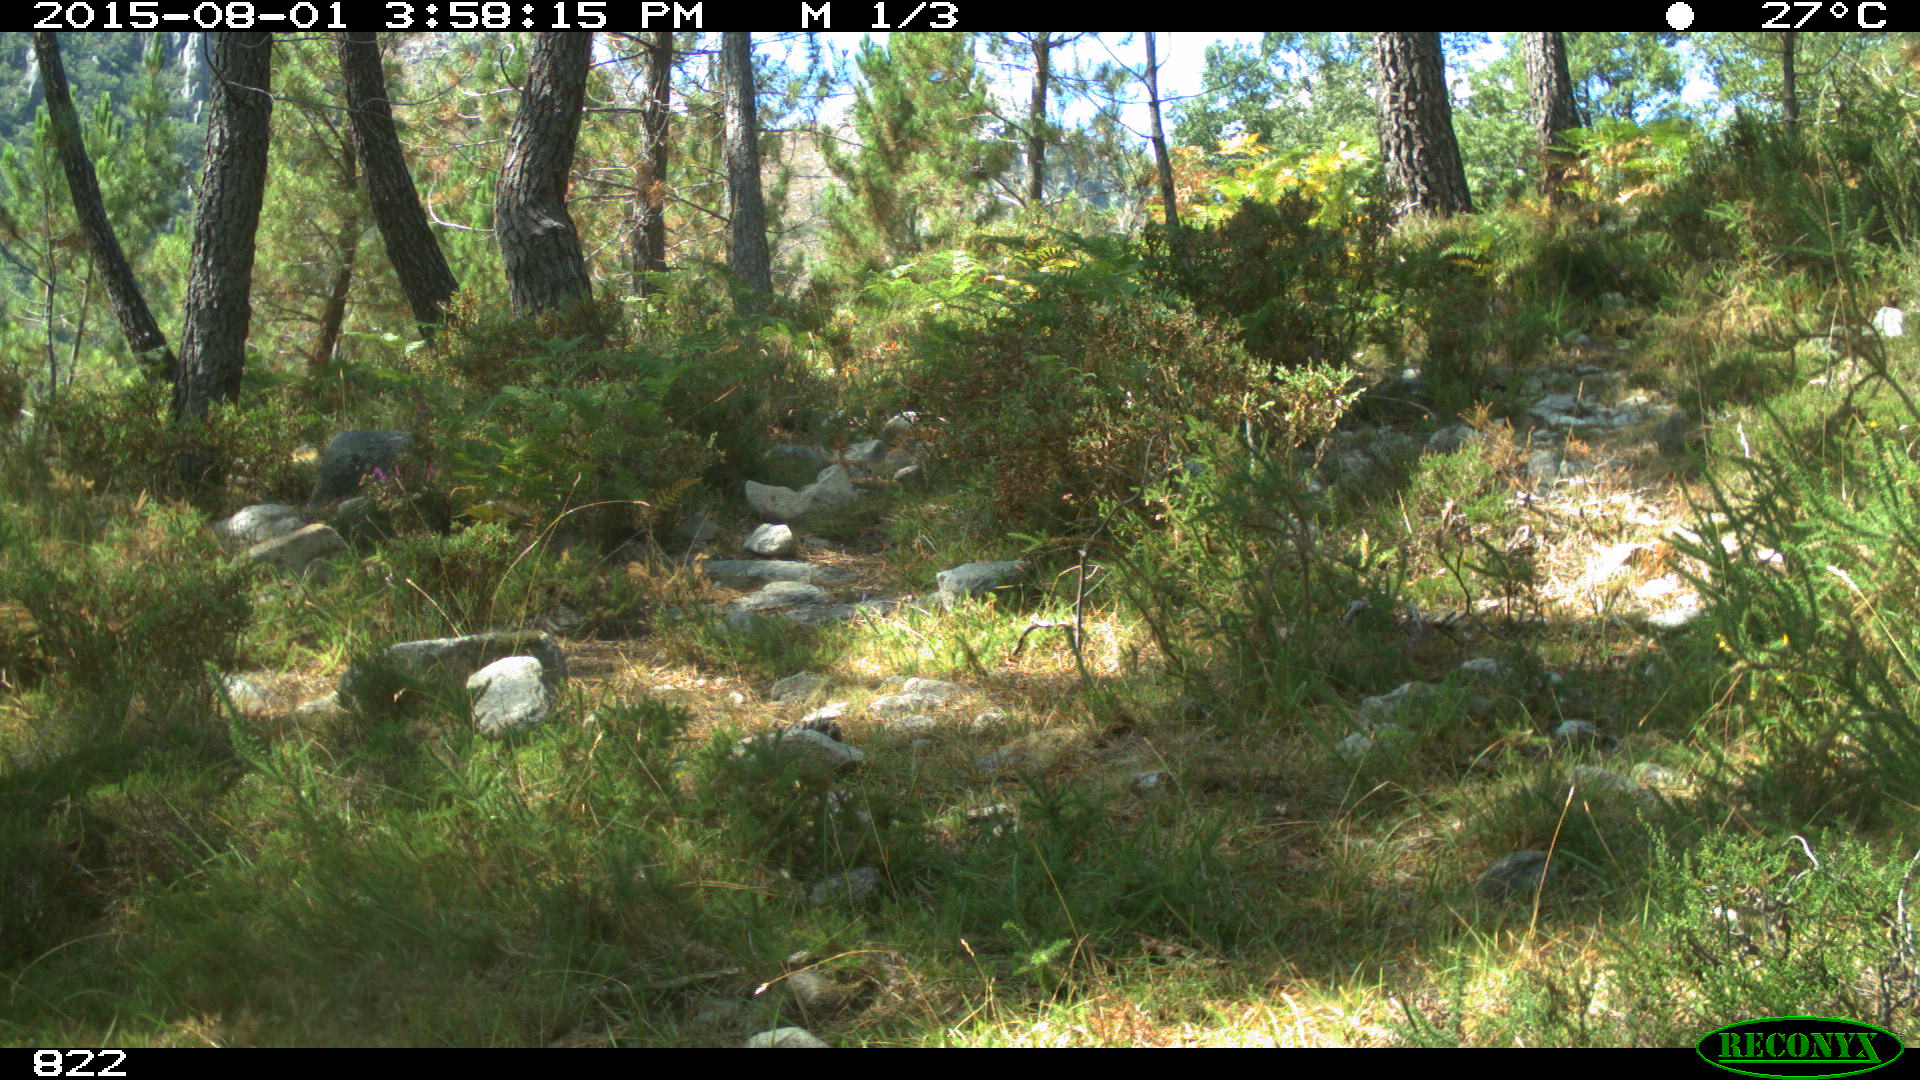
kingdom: Animalia
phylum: Chordata
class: Mammalia
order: Artiodactyla
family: Suidae
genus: Sus
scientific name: Sus scrofa
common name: Wild boar
